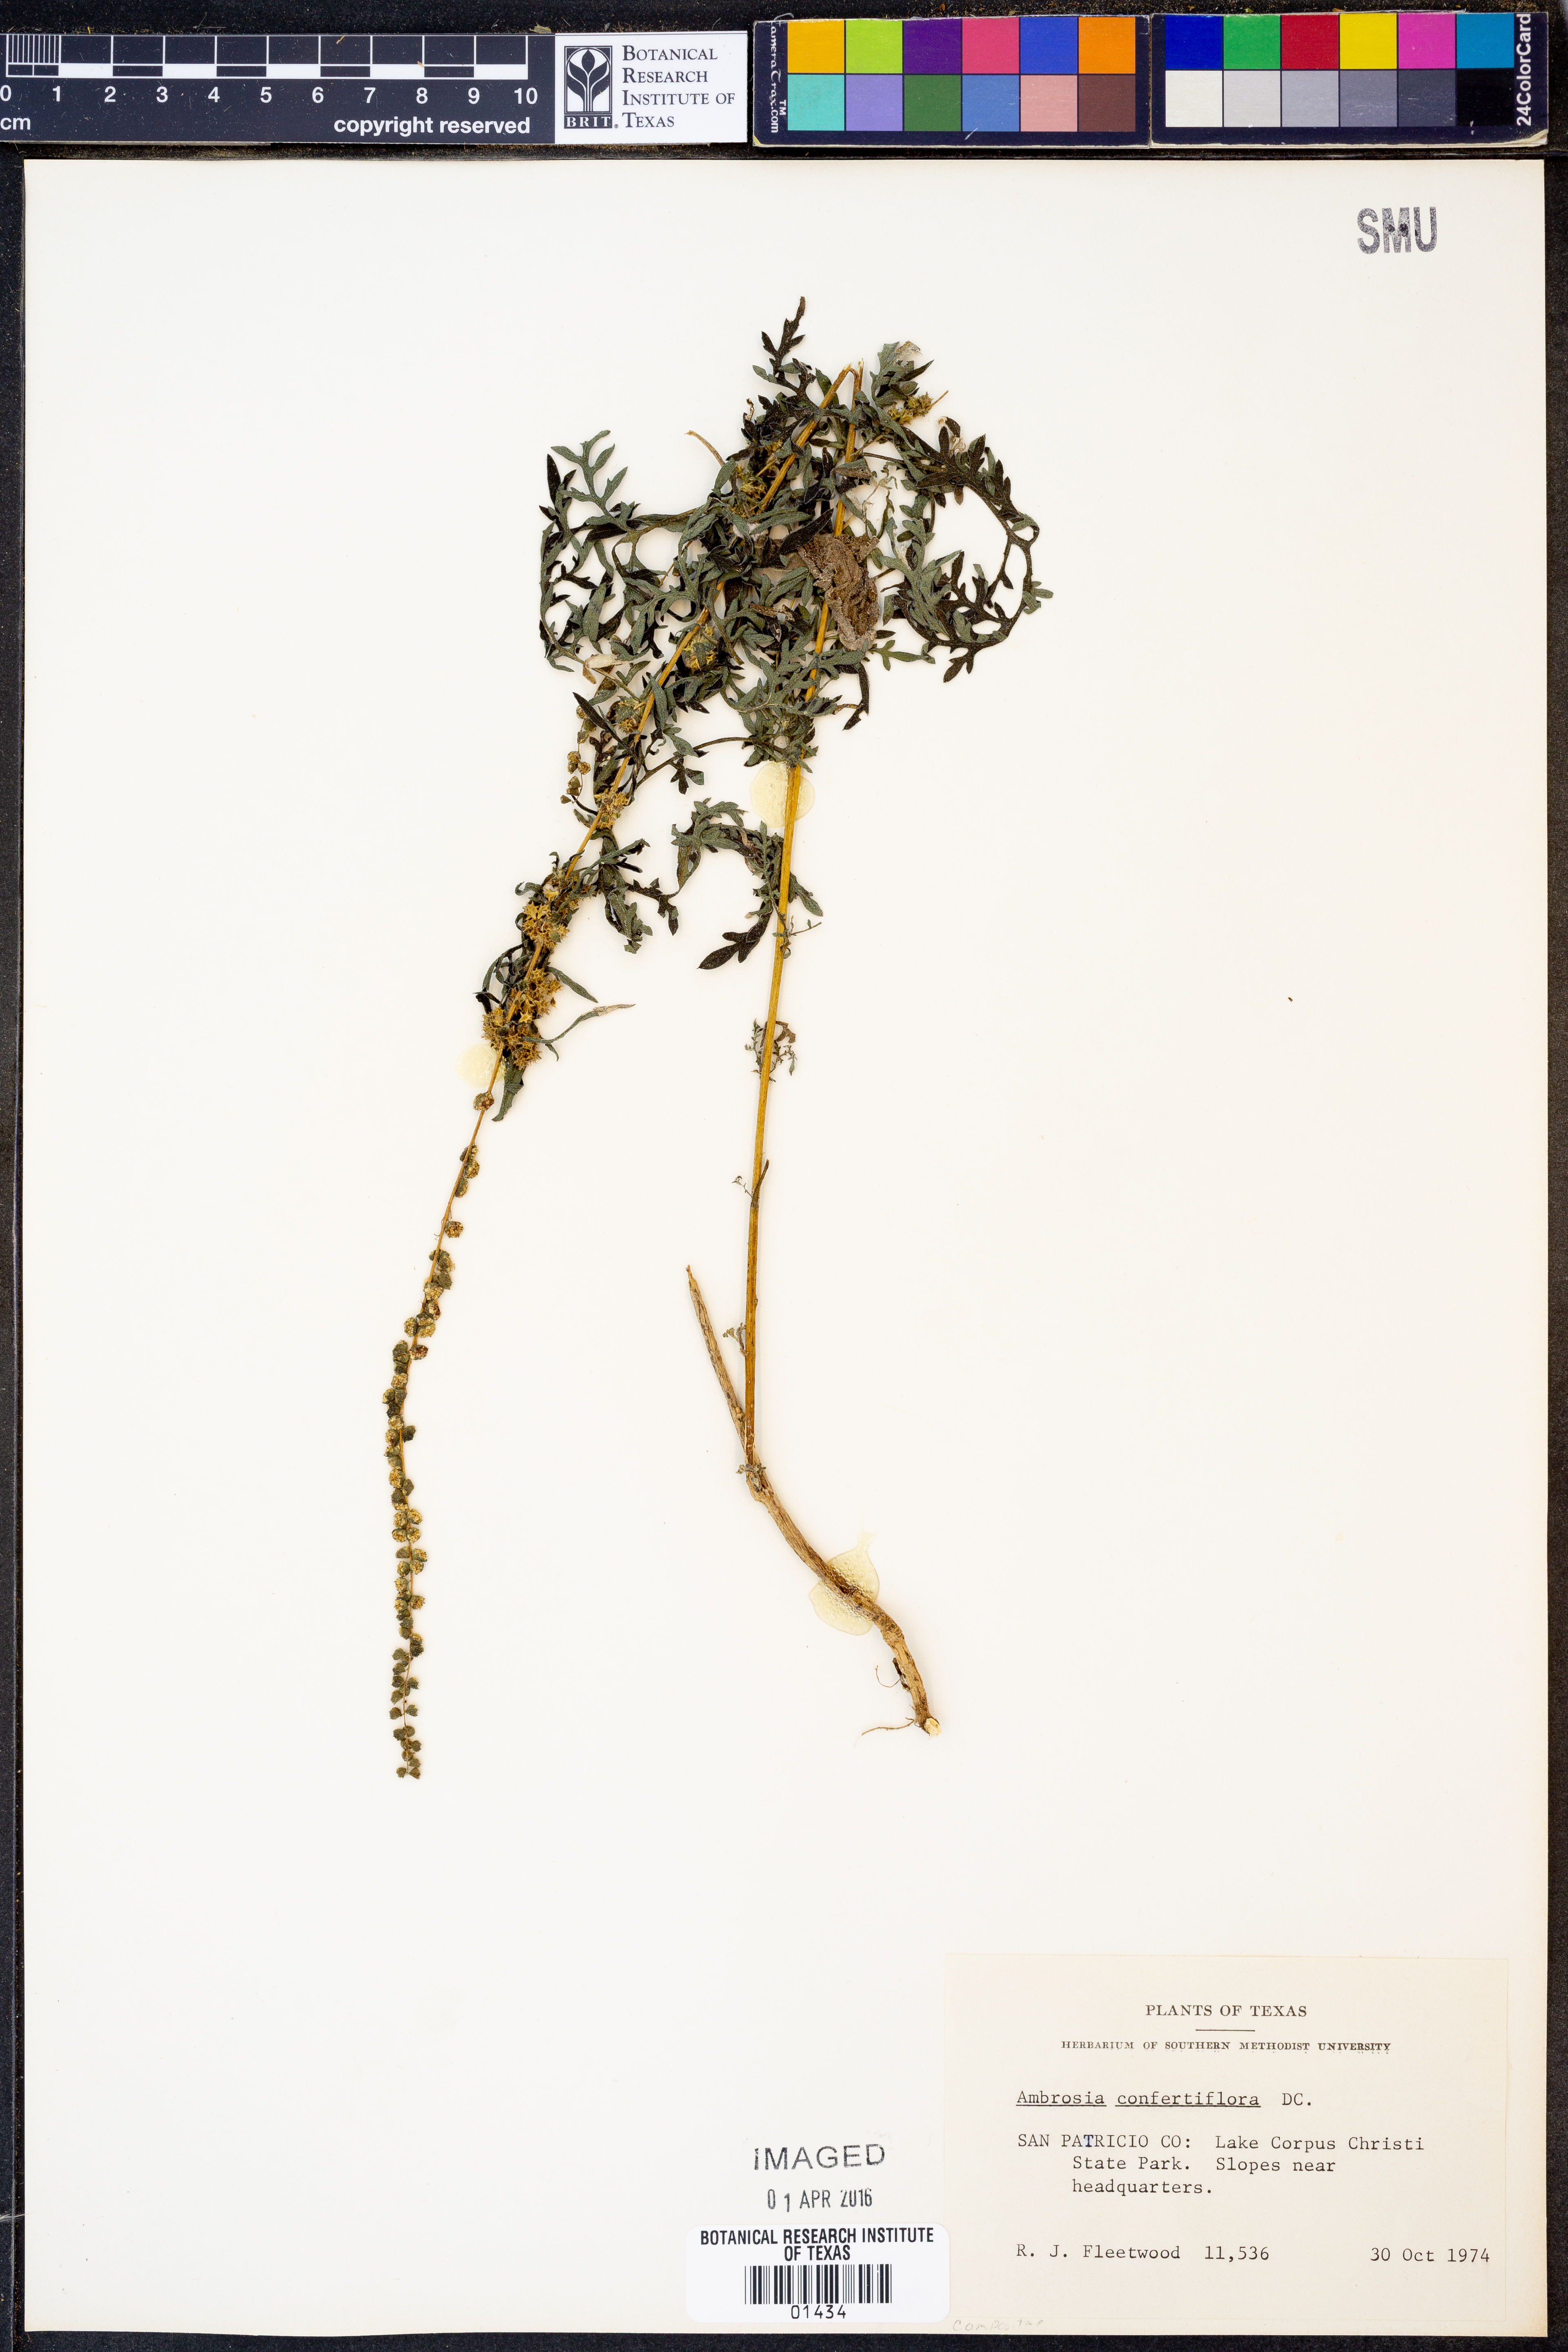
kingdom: Plantae
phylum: Tracheophyta
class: Magnoliopsida
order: Asterales
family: Asteraceae
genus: Ambrosia
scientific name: Ambrosia confertiflora
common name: Bur ragweed
